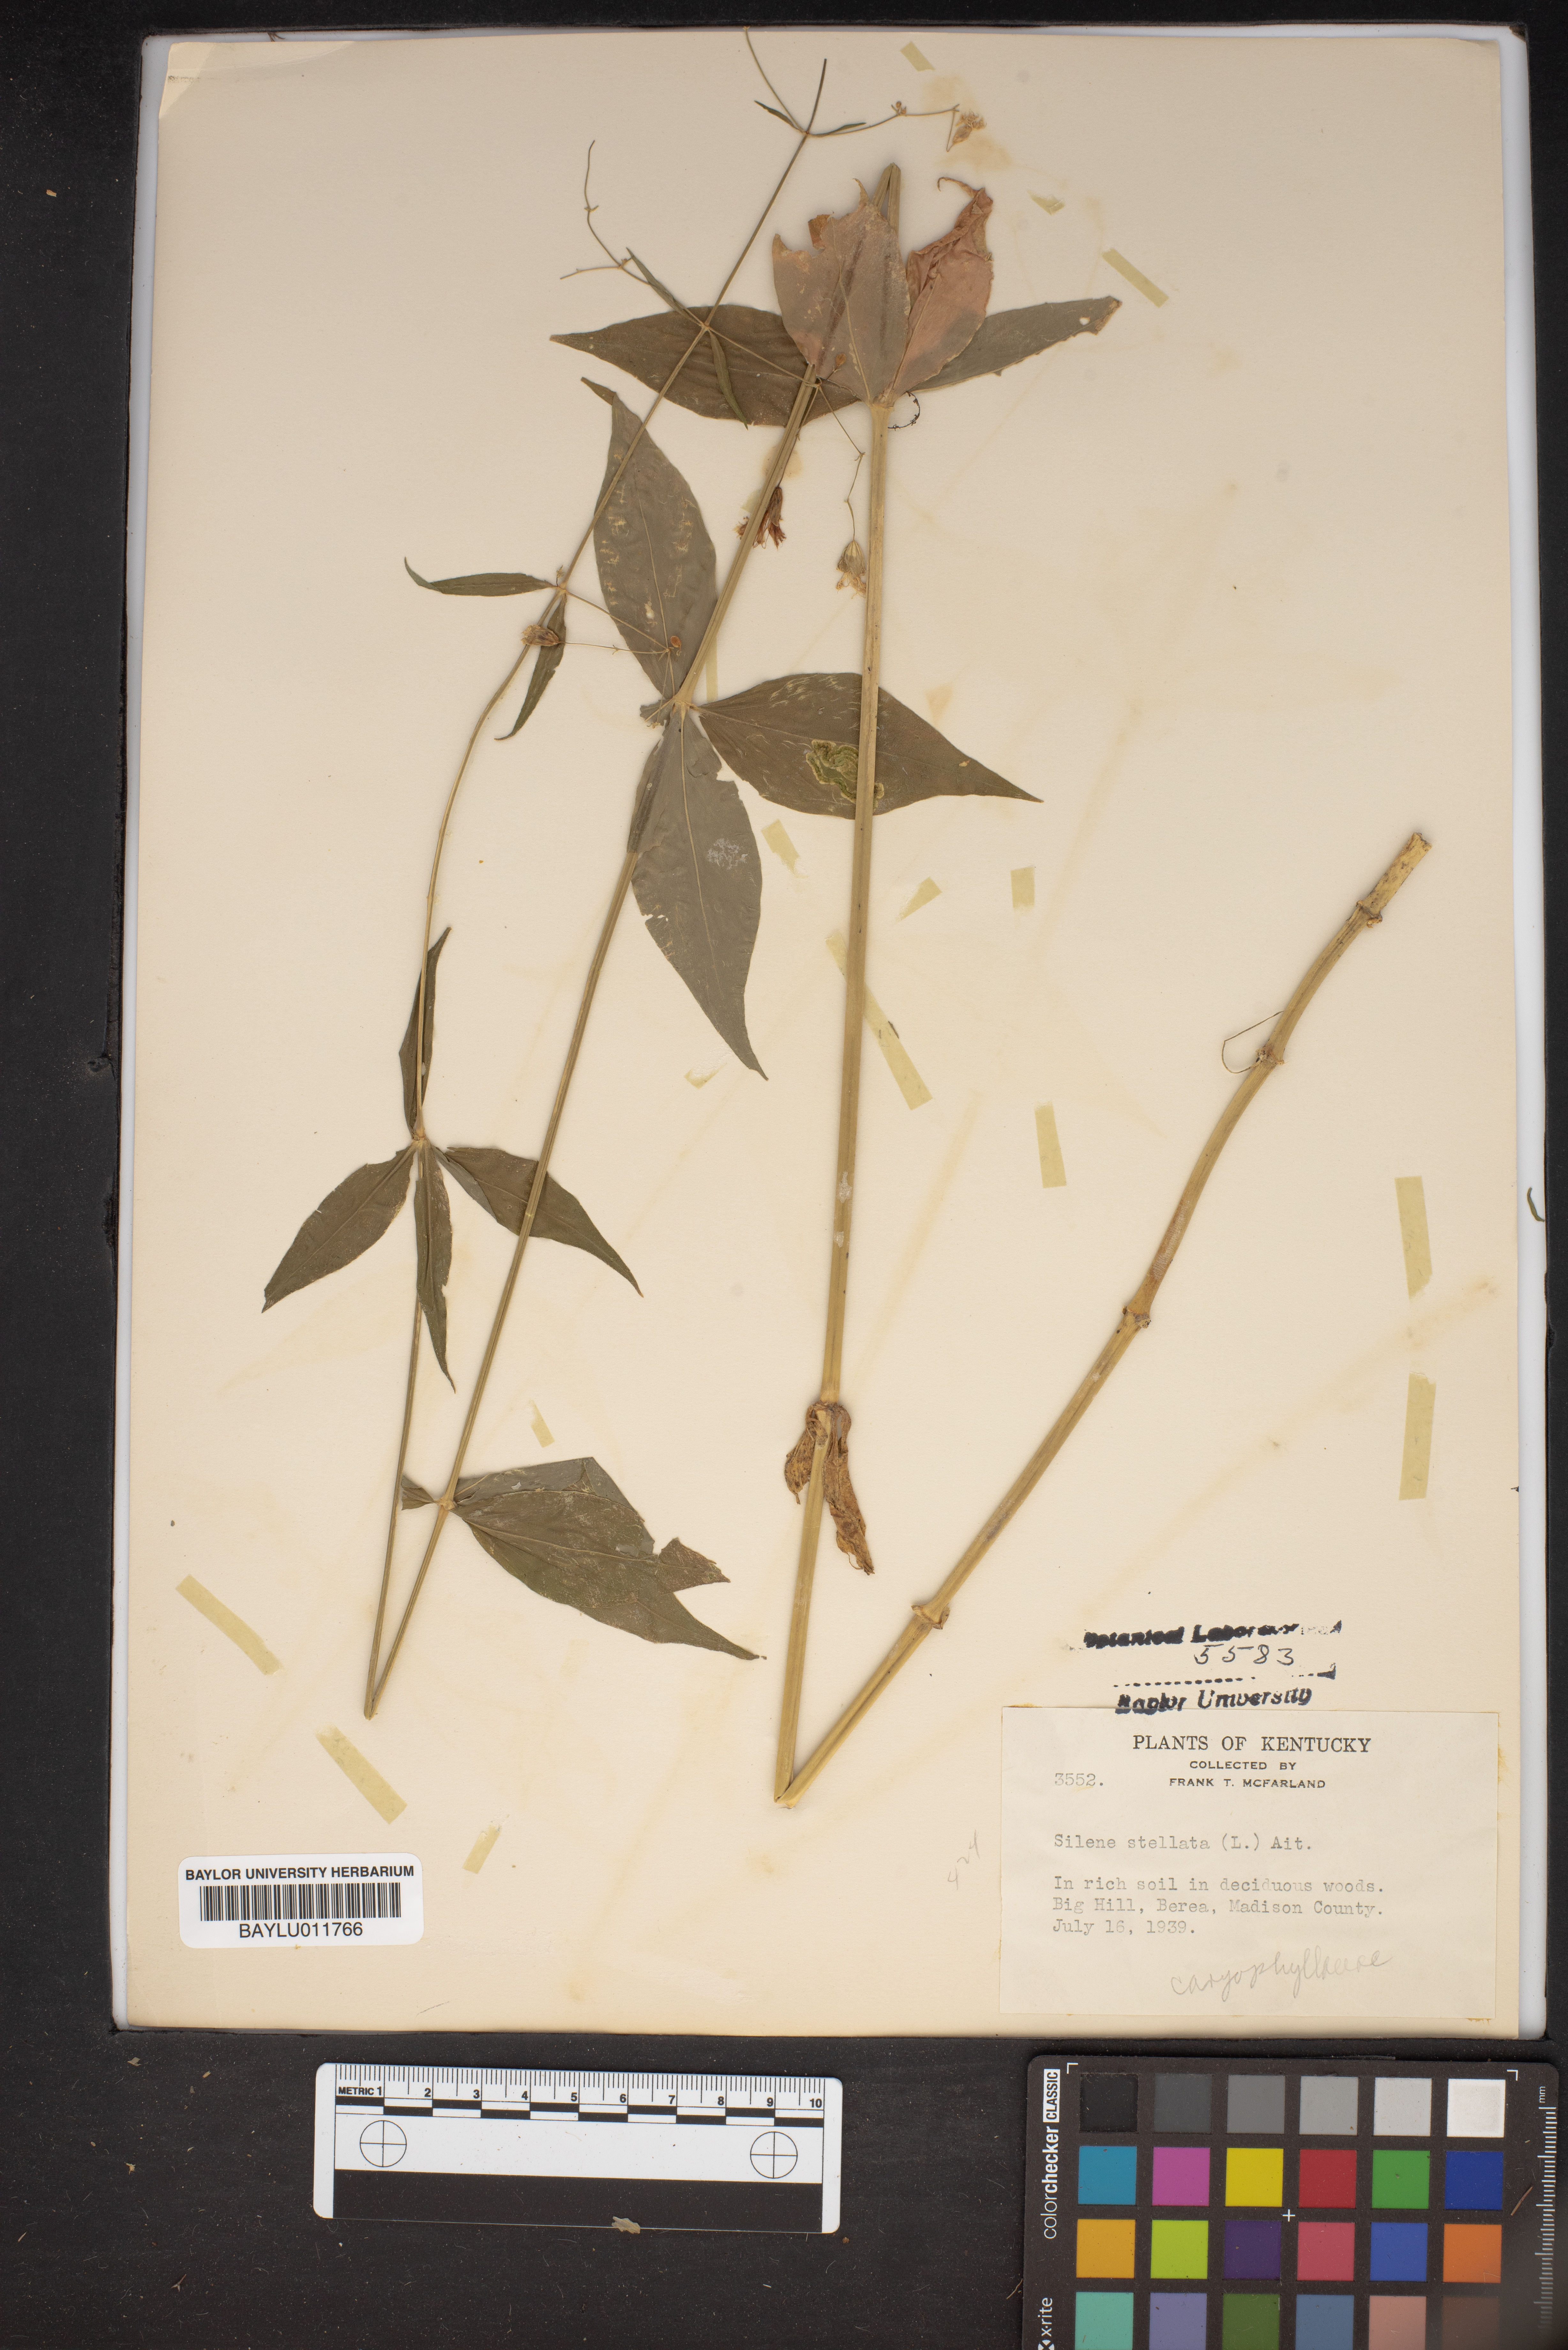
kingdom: Plantae
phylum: Tracheophyta
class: Magnoliopsida
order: Caryophyllales
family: Caryophyllaceae
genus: Silene
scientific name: Silene stellata
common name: Starry campion
